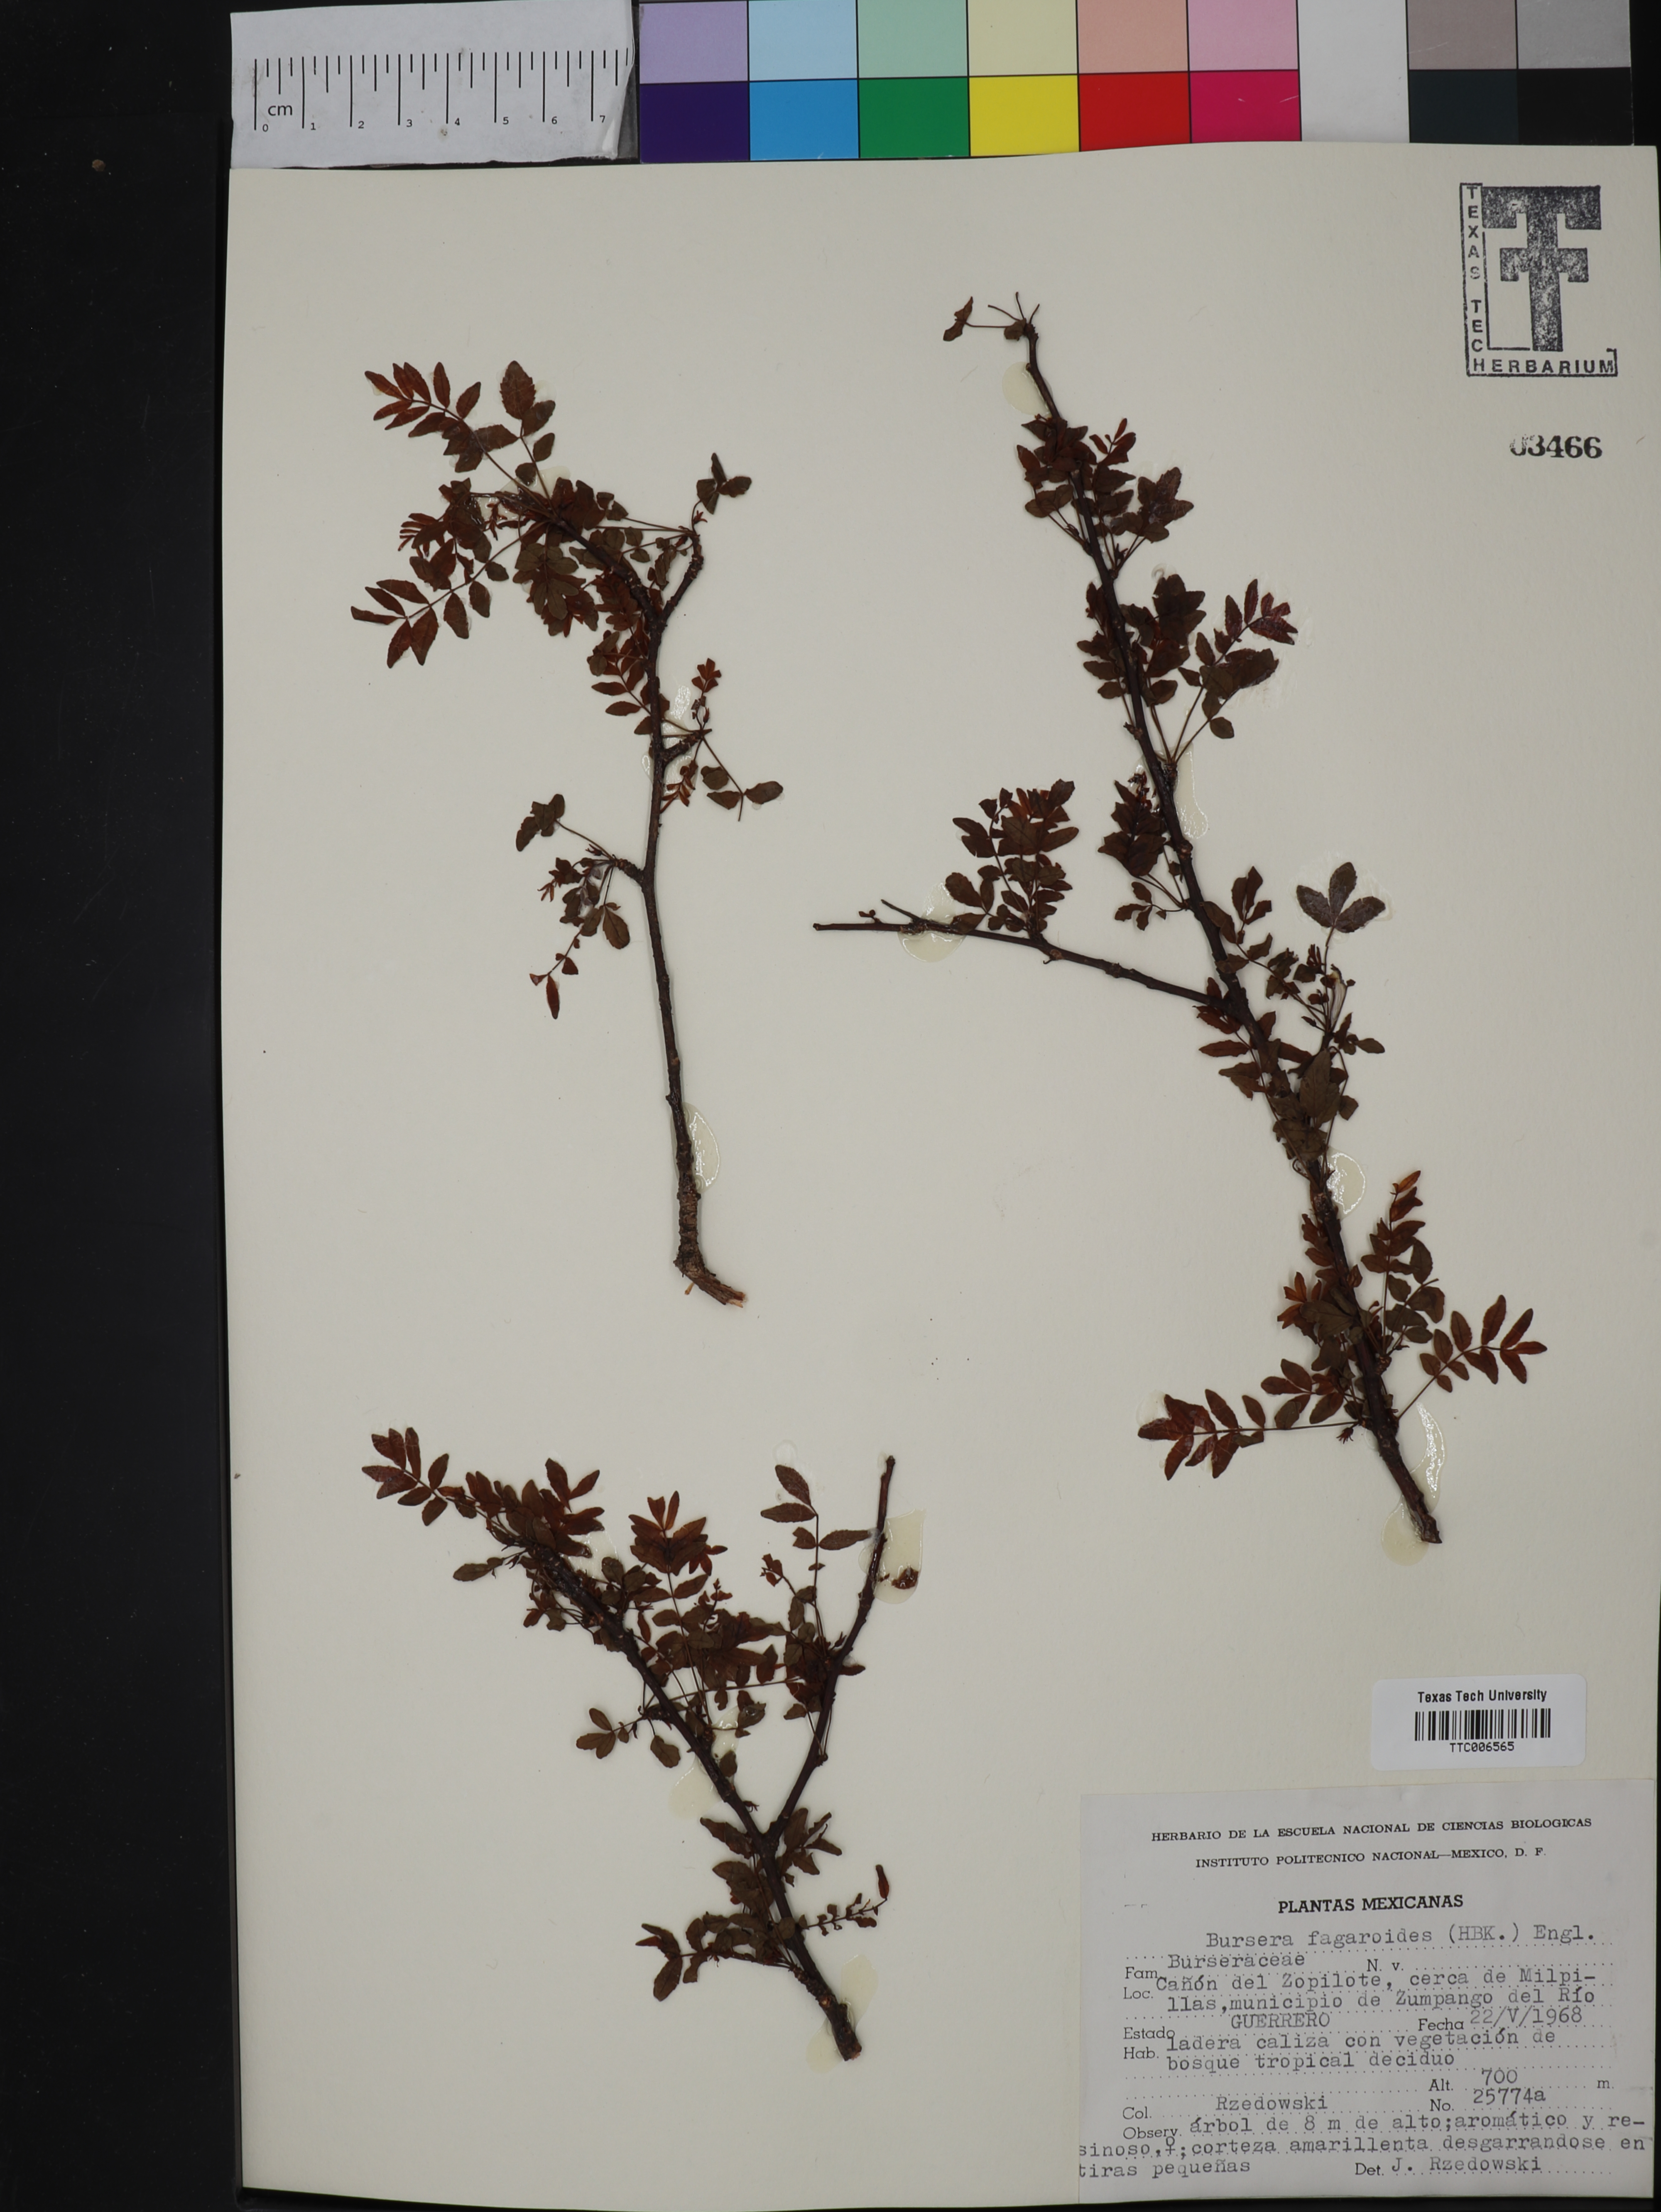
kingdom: Plantae
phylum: Tracheophyta
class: Magnoliopsida
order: Sapindales
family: Burseraceae
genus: Bursera
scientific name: Bursera fagaroides
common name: Elephant tree
